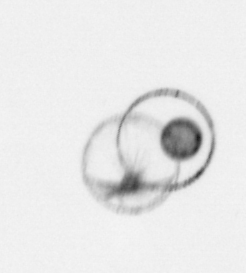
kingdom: Chromista
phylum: Myzozoa
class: Dinophyceae
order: Noctilucales
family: Noctilucaceae
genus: Noctiluca
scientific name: Noctiluca scintillans
